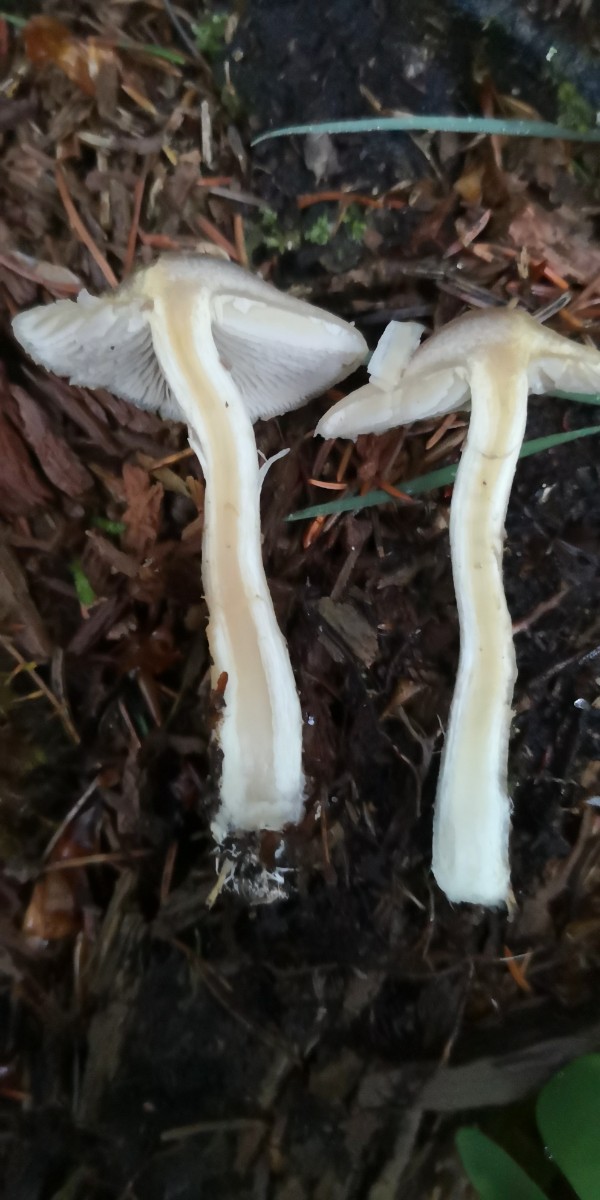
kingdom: Fungi
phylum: Basidiomycota
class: Agaricomycetes
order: Agaricales
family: Strophariaceae
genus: Agrocybe
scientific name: Agrocybe praecox
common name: tidlig agerhat
